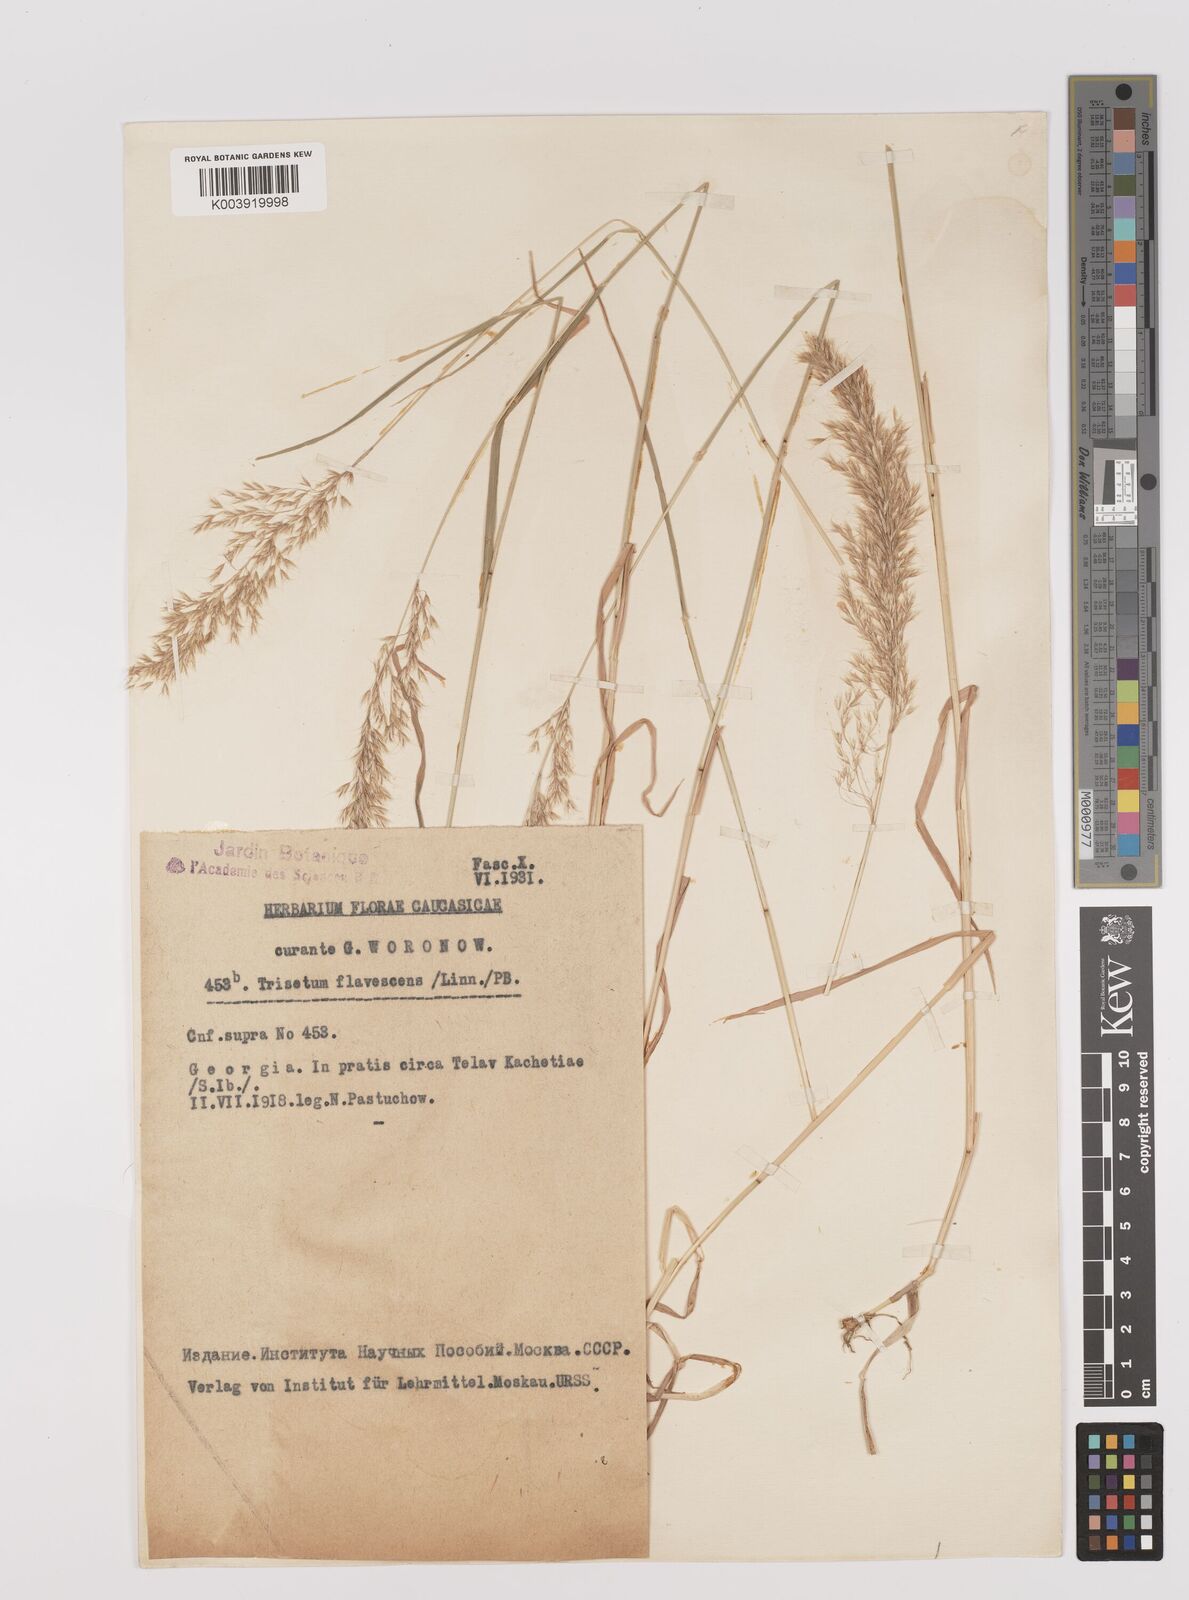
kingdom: Plantae
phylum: Tracheophyta
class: Liliopsida
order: Poales
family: Poaceae
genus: Trisetum
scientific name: Trisetum flavescens
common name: Yellow oat-grass
